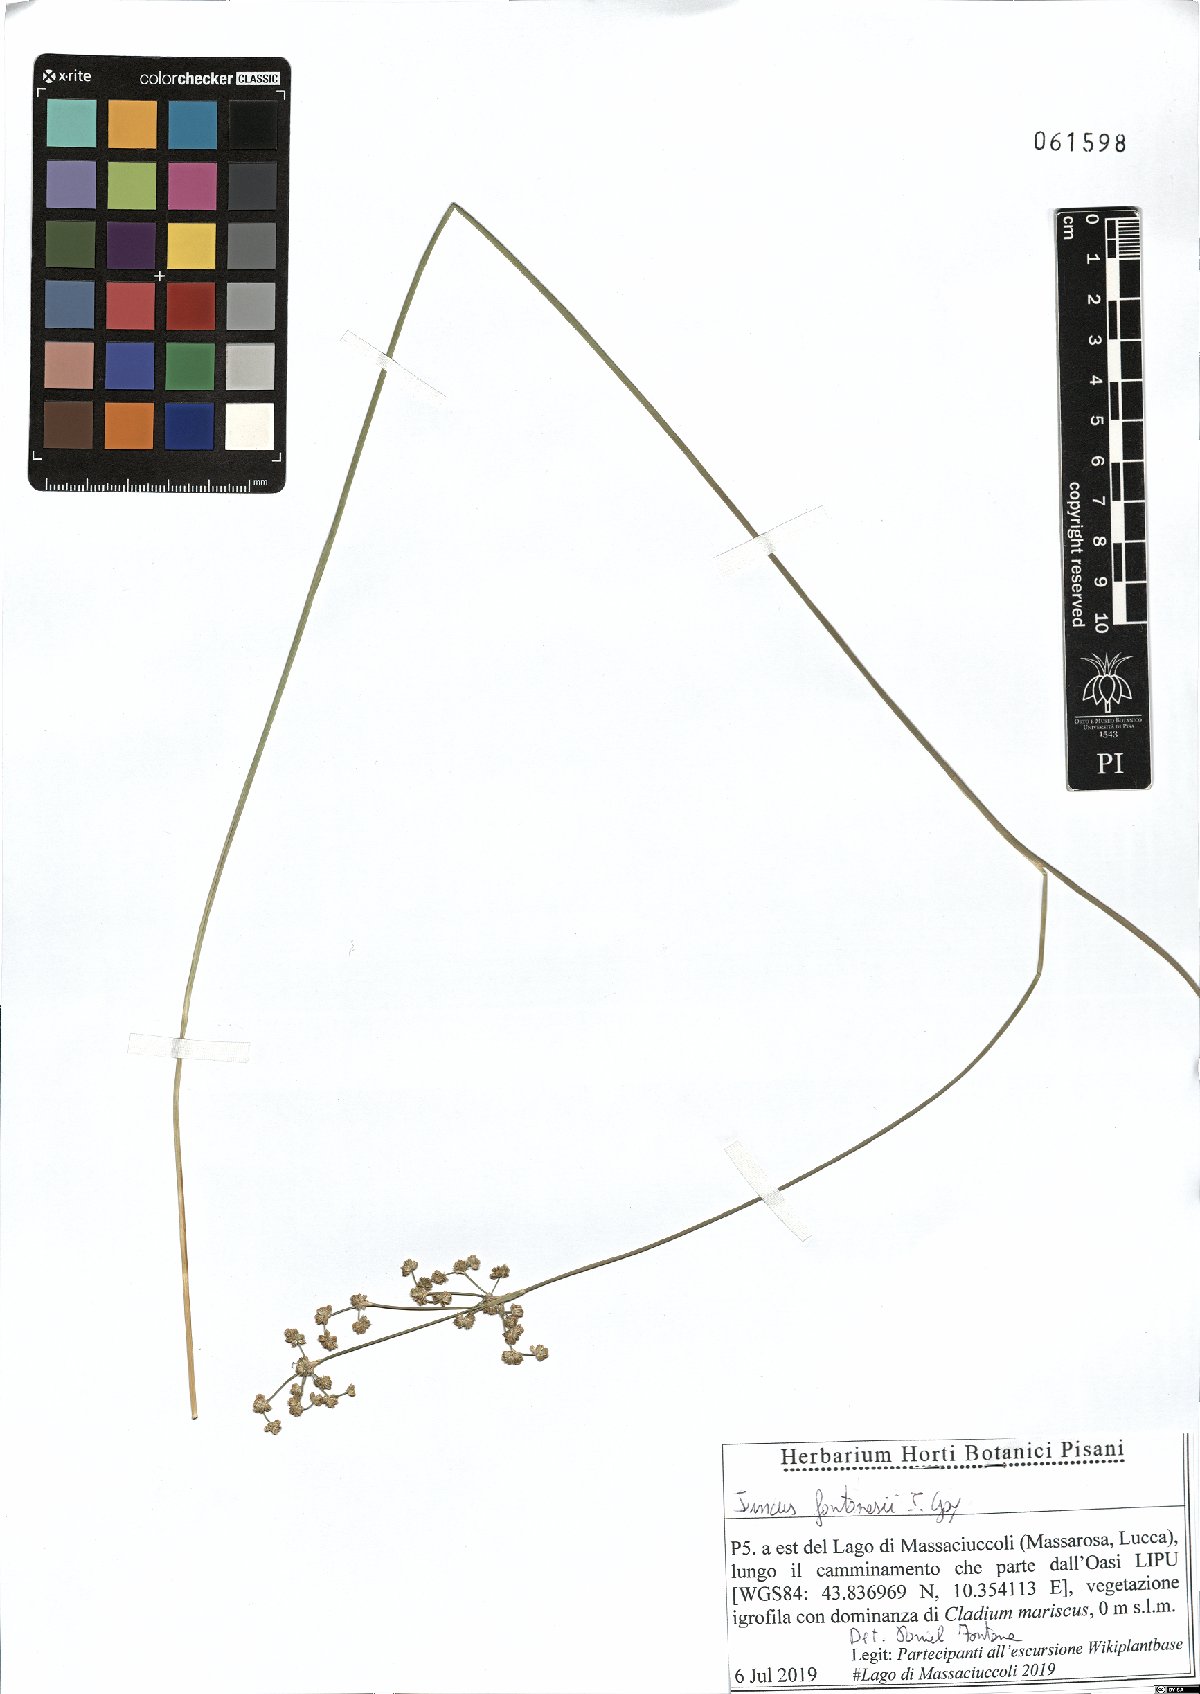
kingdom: Plantae
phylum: Tracheophyta
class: Liliopsida
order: Poales
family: Juncaceae
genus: Juncus
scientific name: Juncus fontanesii
